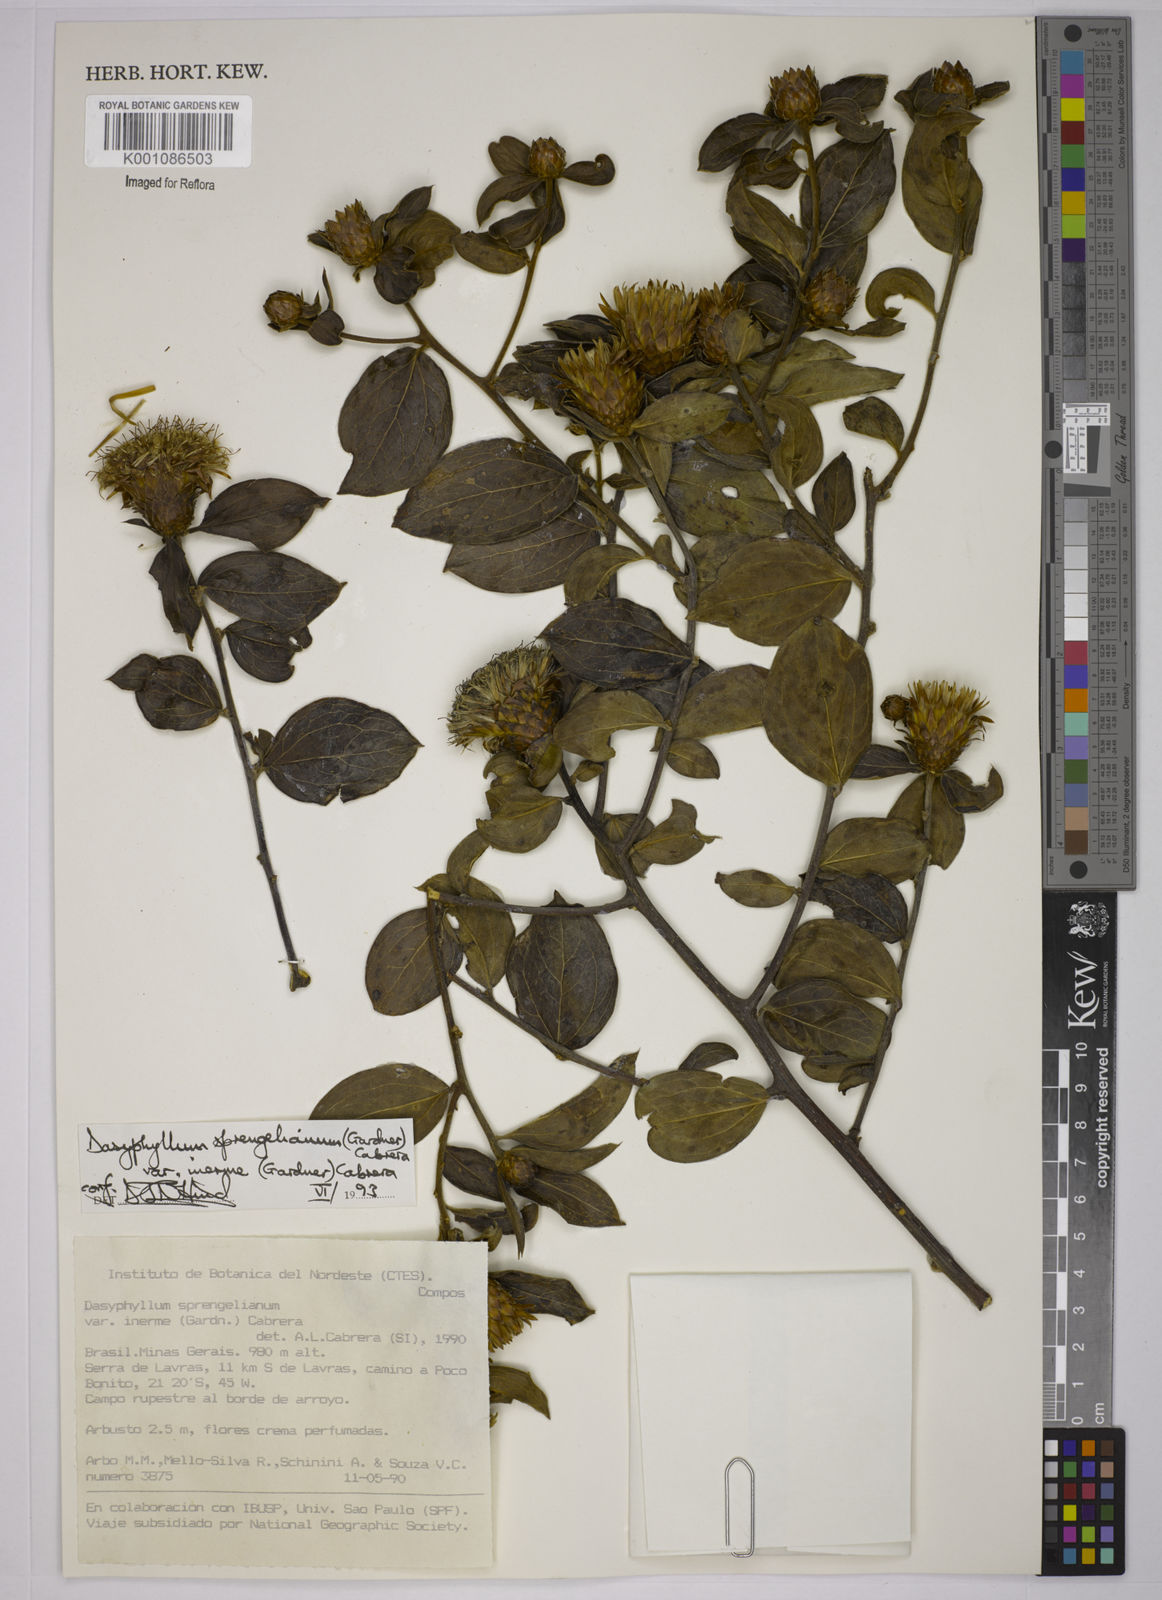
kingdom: Plantae
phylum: Tracheophyta
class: Magnoliopsida
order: Asterales
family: Asteraceae
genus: Dasyphyllum
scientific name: Dasyphyllum sprengelianum
